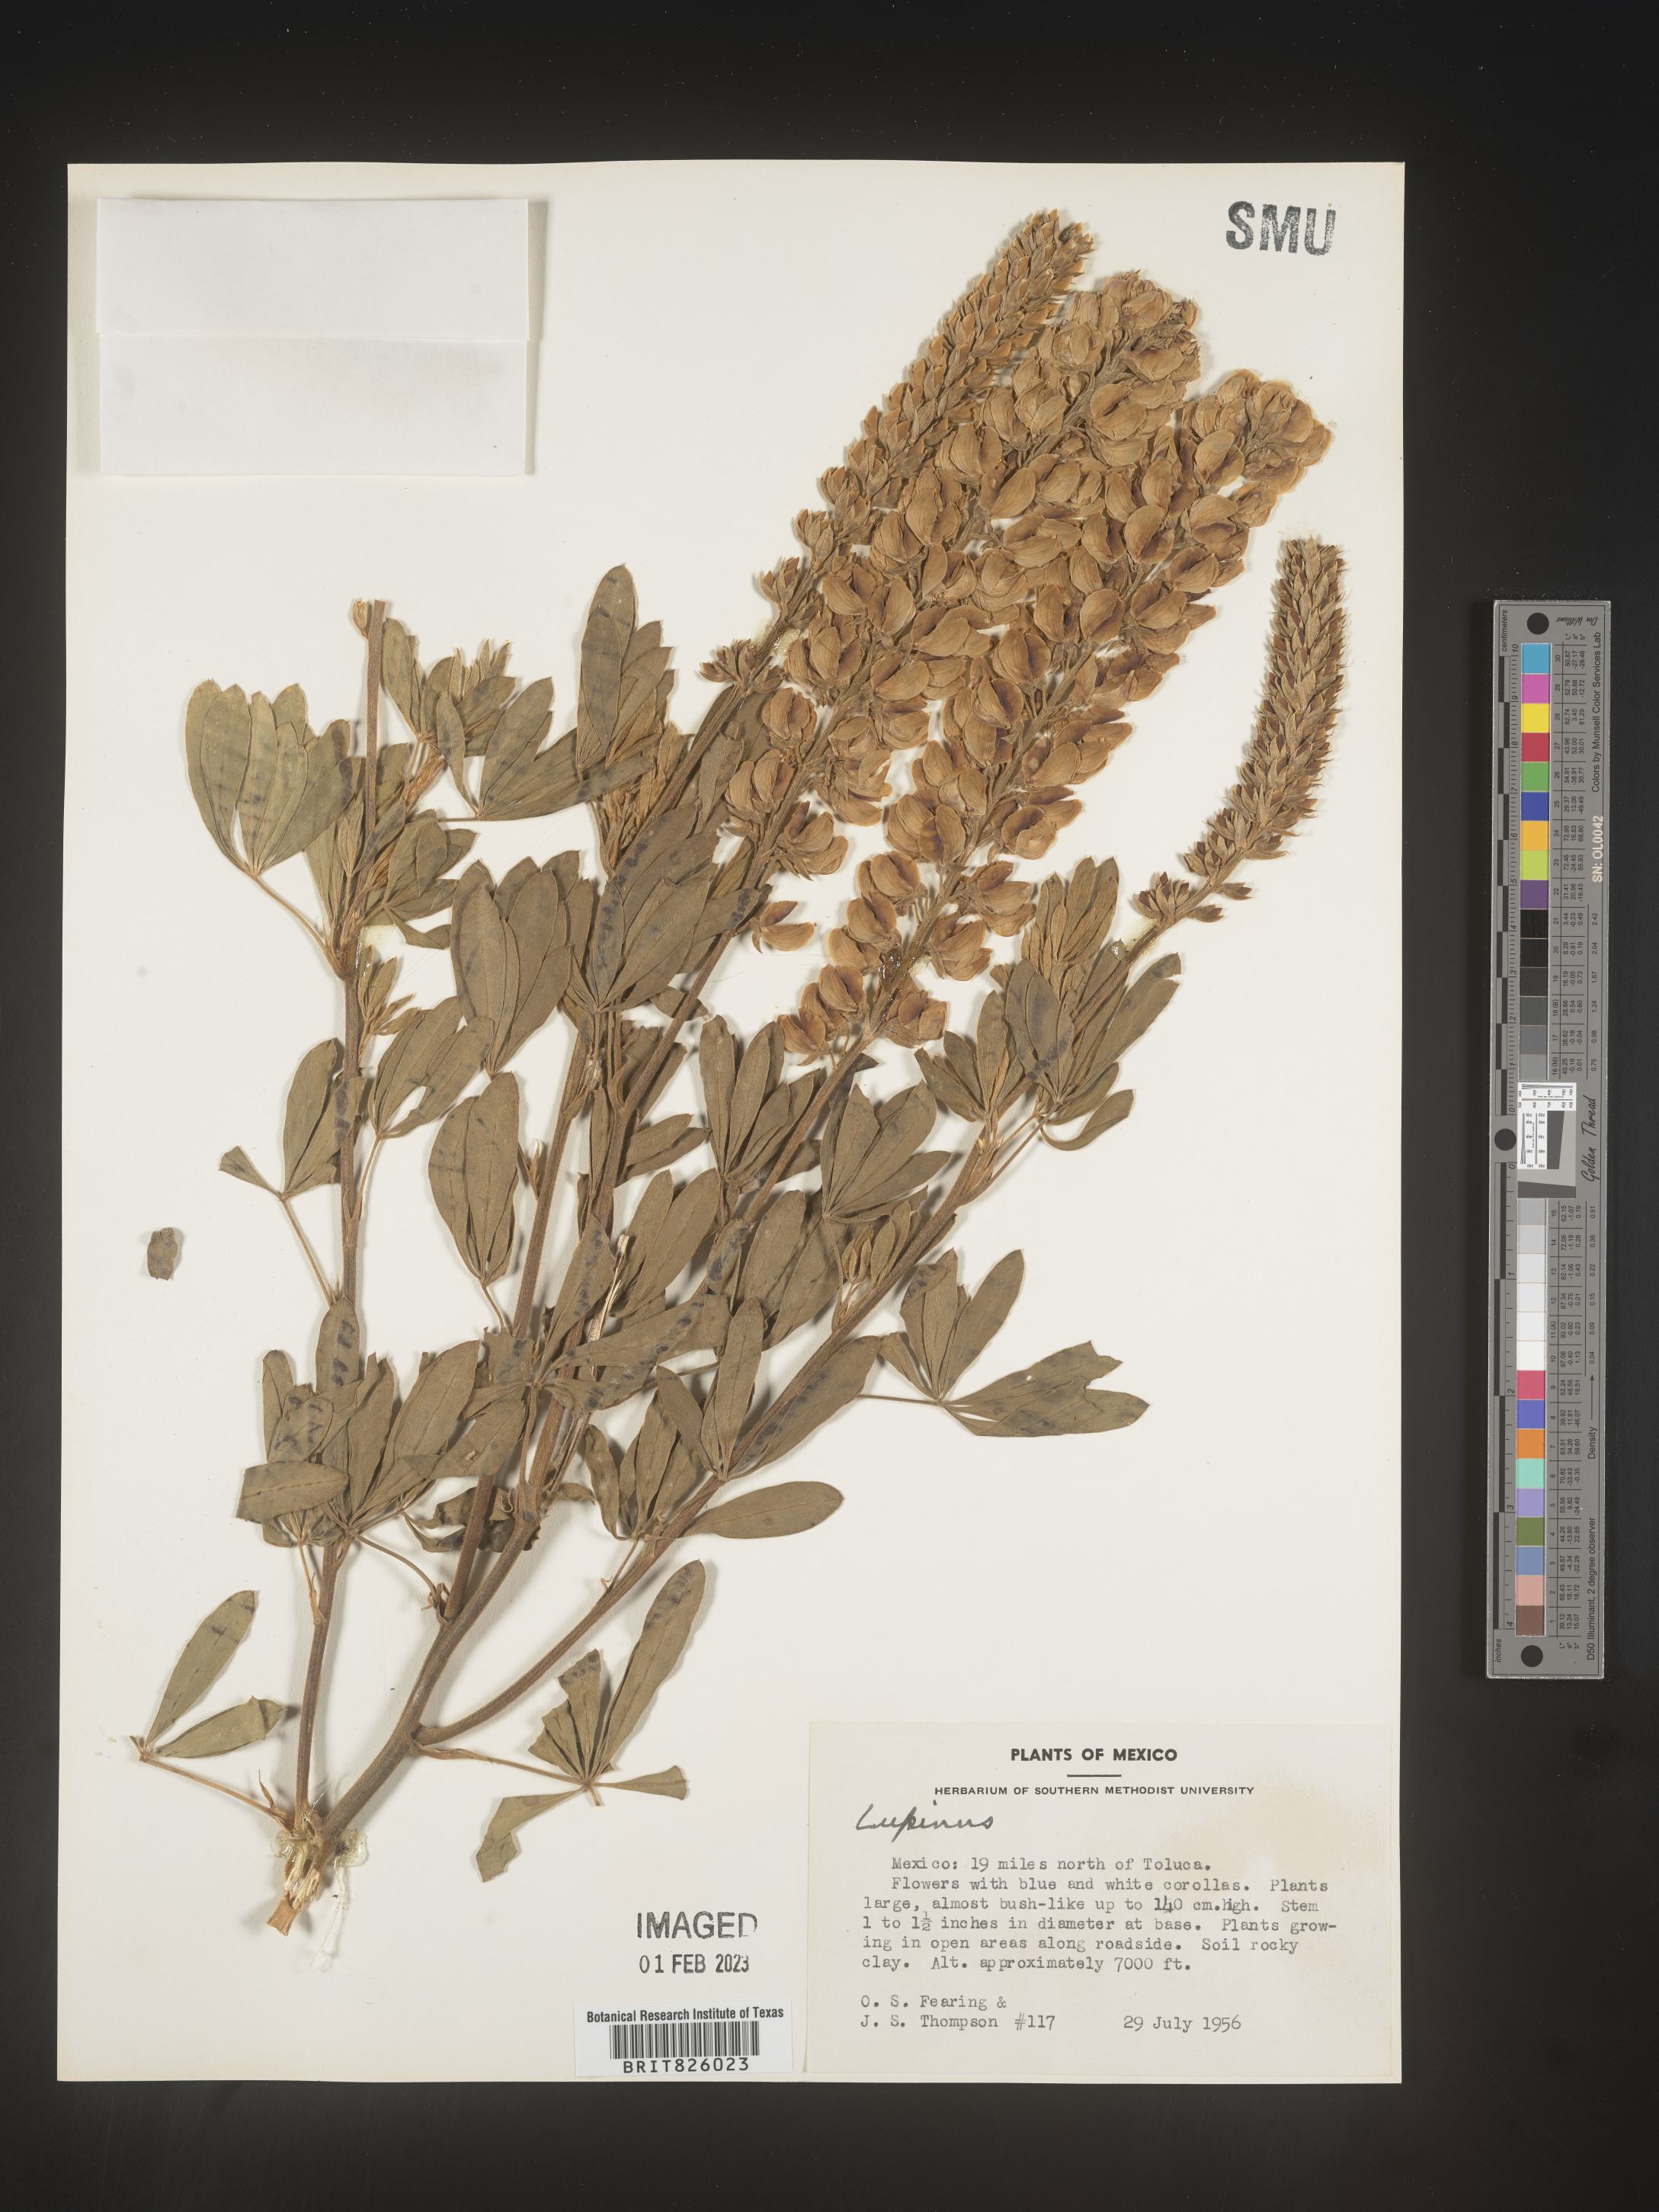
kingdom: Plantae
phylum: Tracheophyta
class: Magnoliopsida
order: Fabales
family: Fabaceae
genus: Lupinus
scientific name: Lupinus
